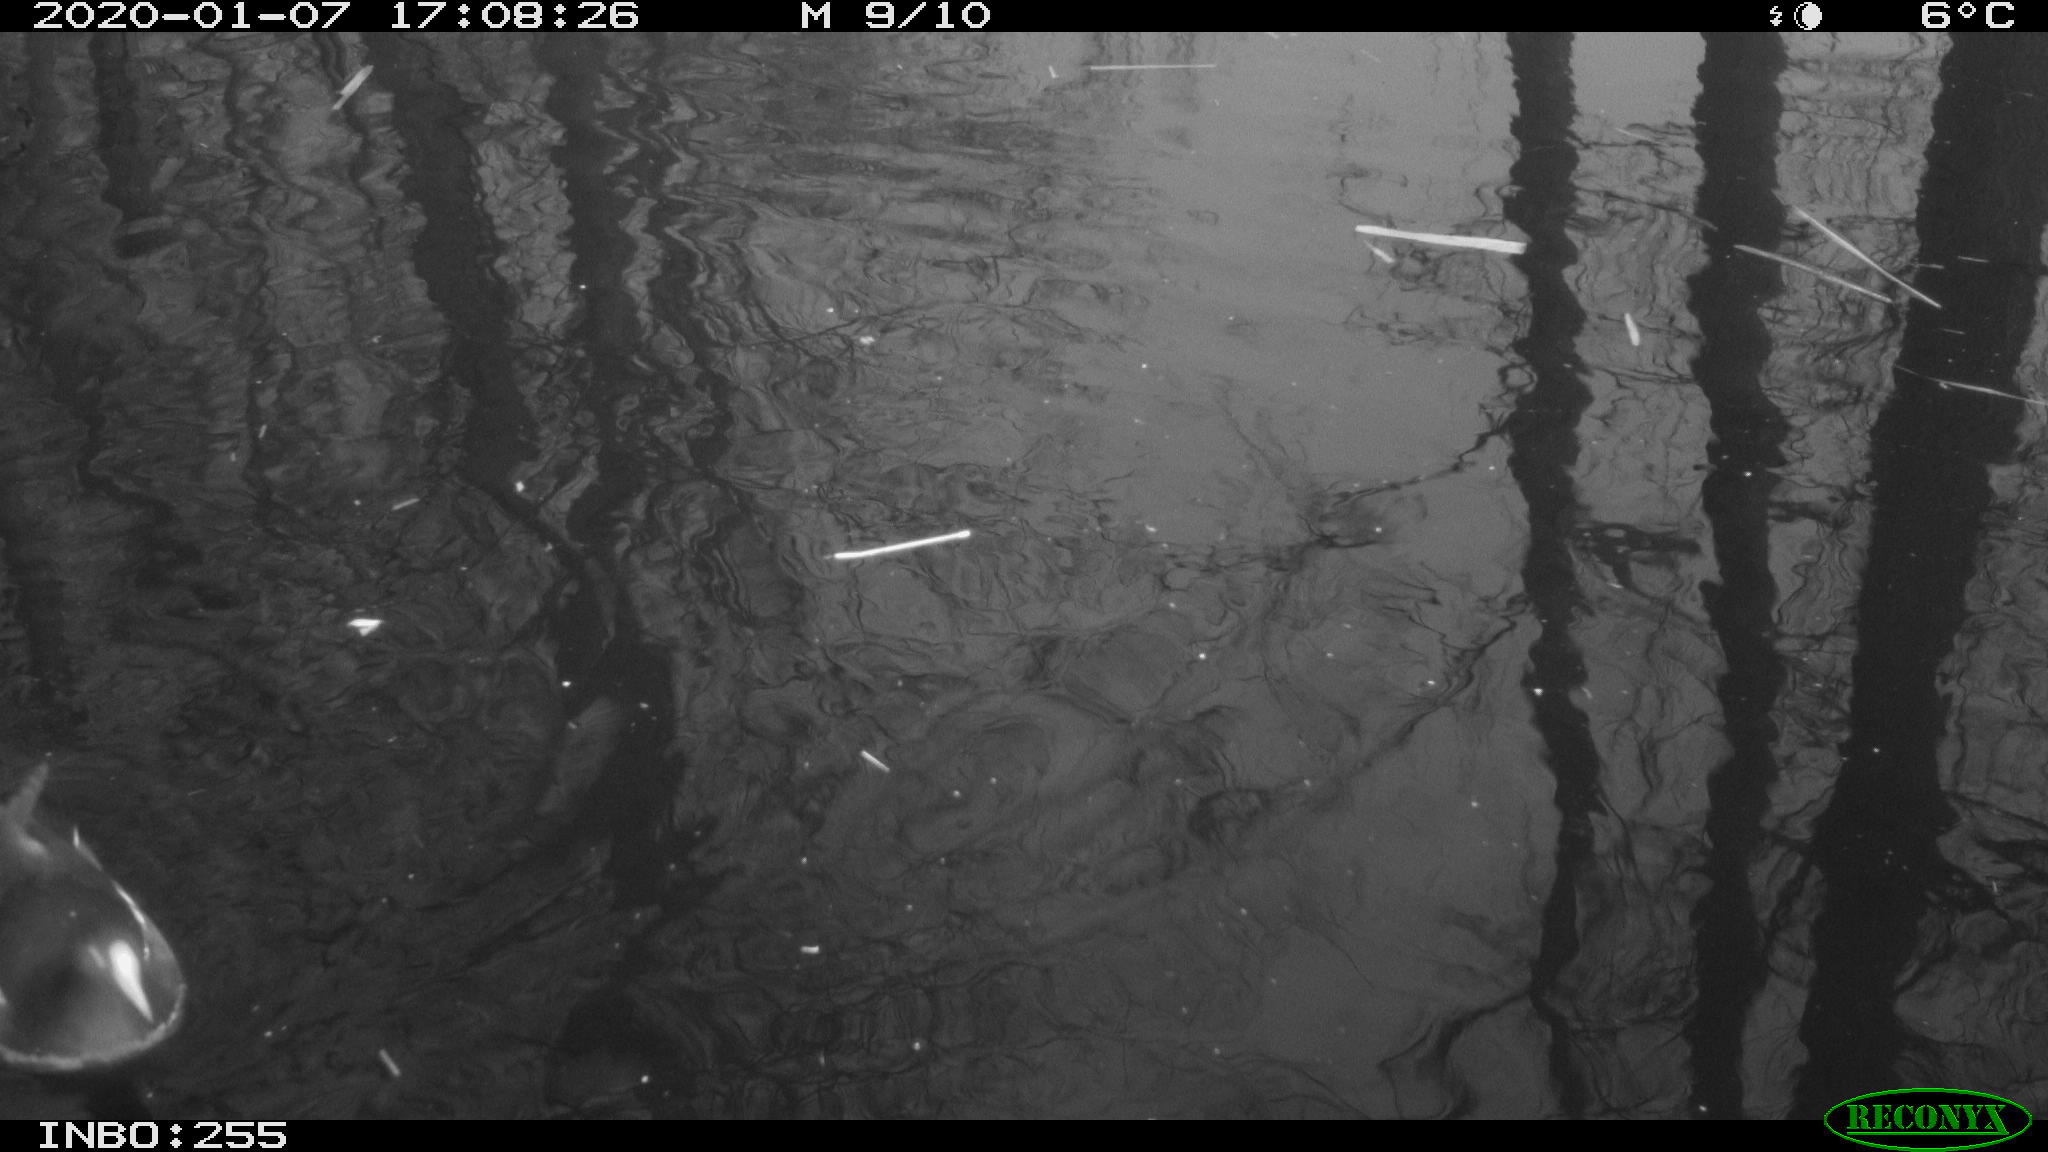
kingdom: Animalia
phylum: Chordata
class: Aves
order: Gruiformes
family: Rallidae
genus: Gallinula
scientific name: Gallinula chloropus
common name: Common moorhen
